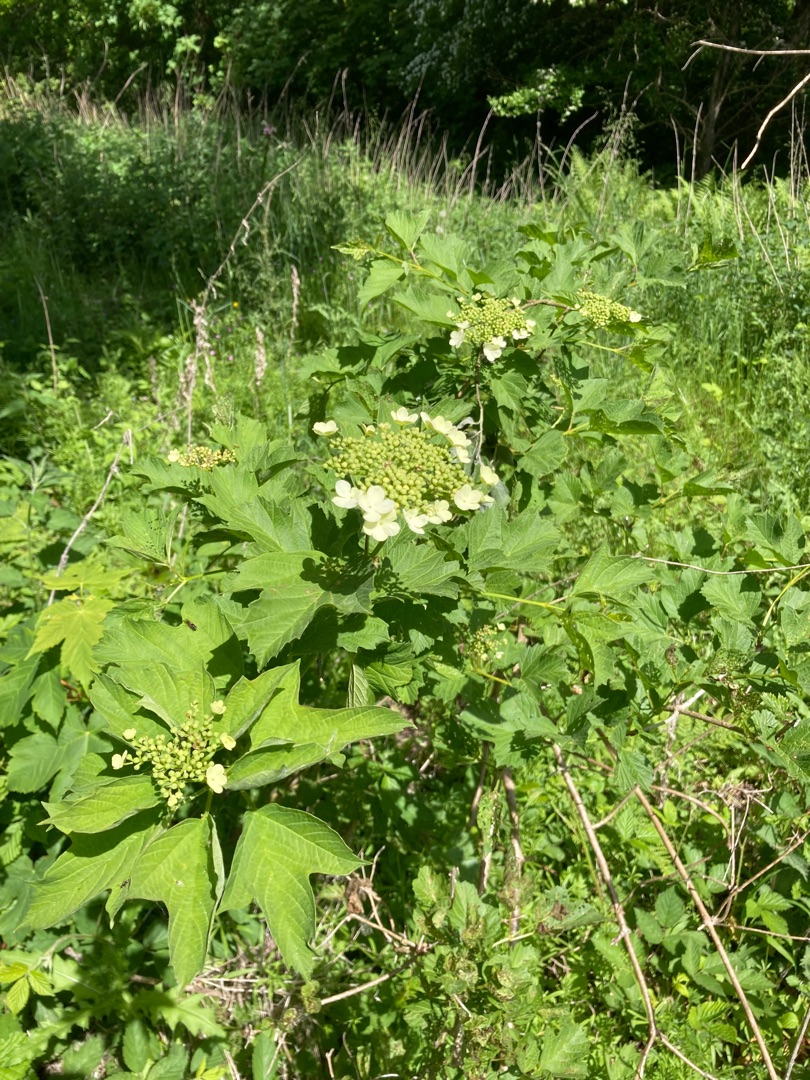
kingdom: Plantae
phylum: Tracheophyta
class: Magnoliopsida
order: Dipsacales
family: Viburnaceae
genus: Viburnum
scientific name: Viburnum opulus
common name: Kvalkved
